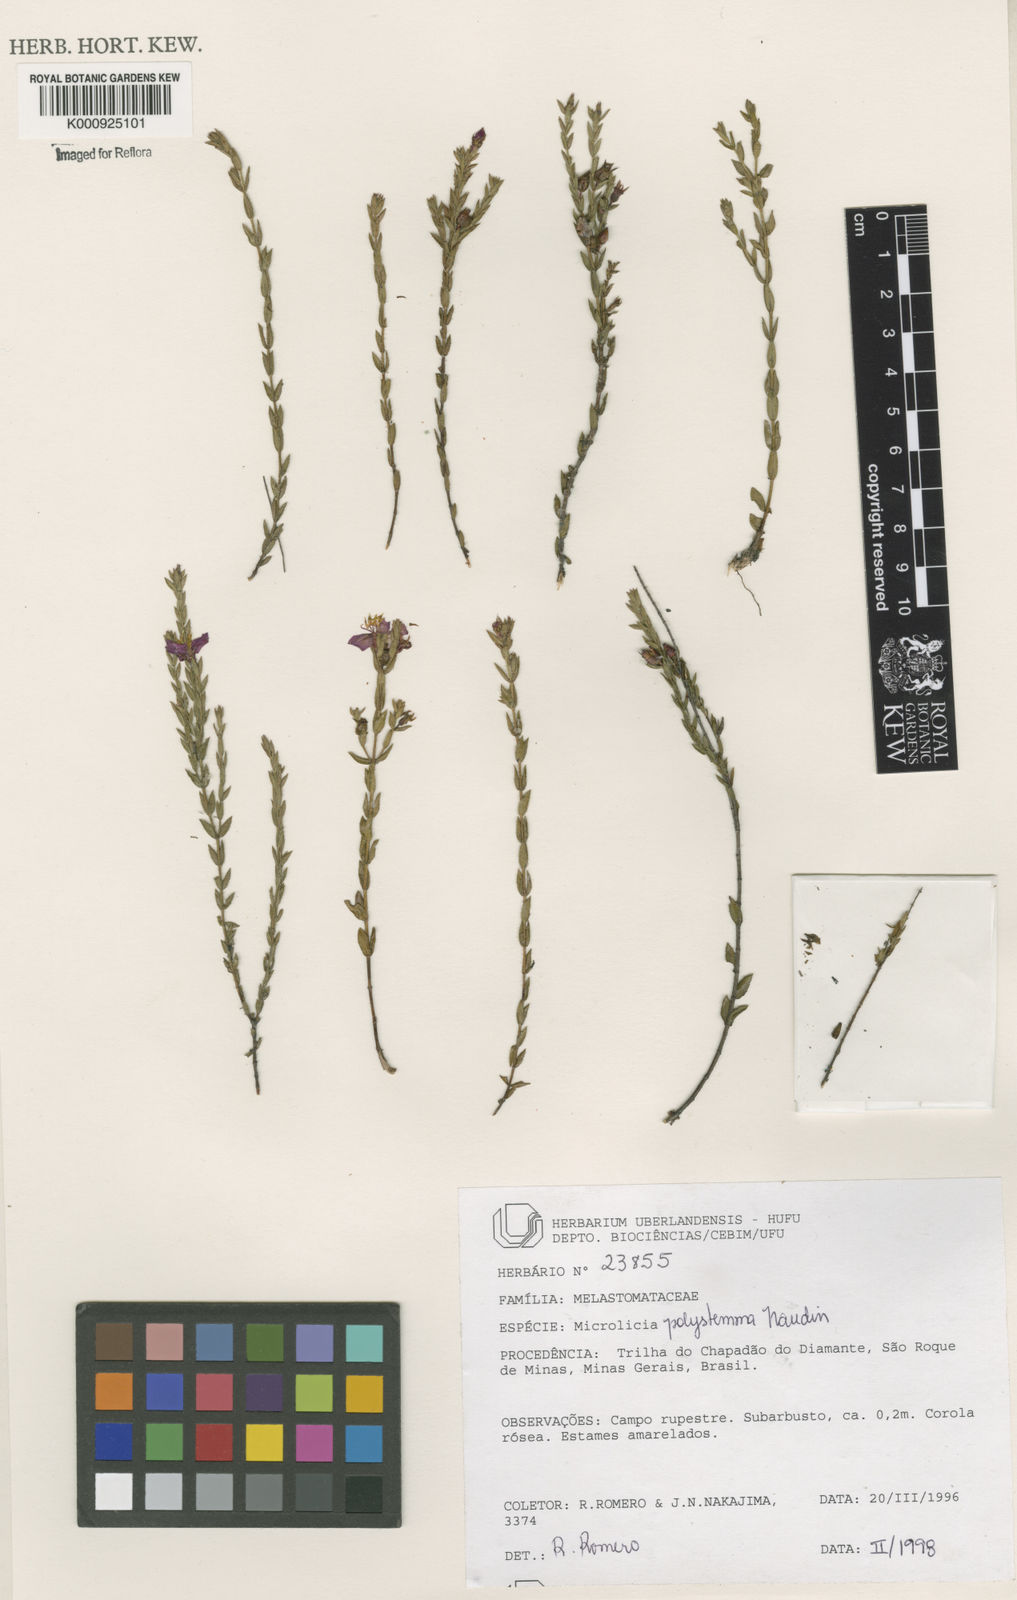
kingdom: Plantae
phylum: Tracheophyta
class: Magnoliopsida
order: Myrtales
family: Melastomataceae
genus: Microlicia
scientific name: Microlicia polystemma
